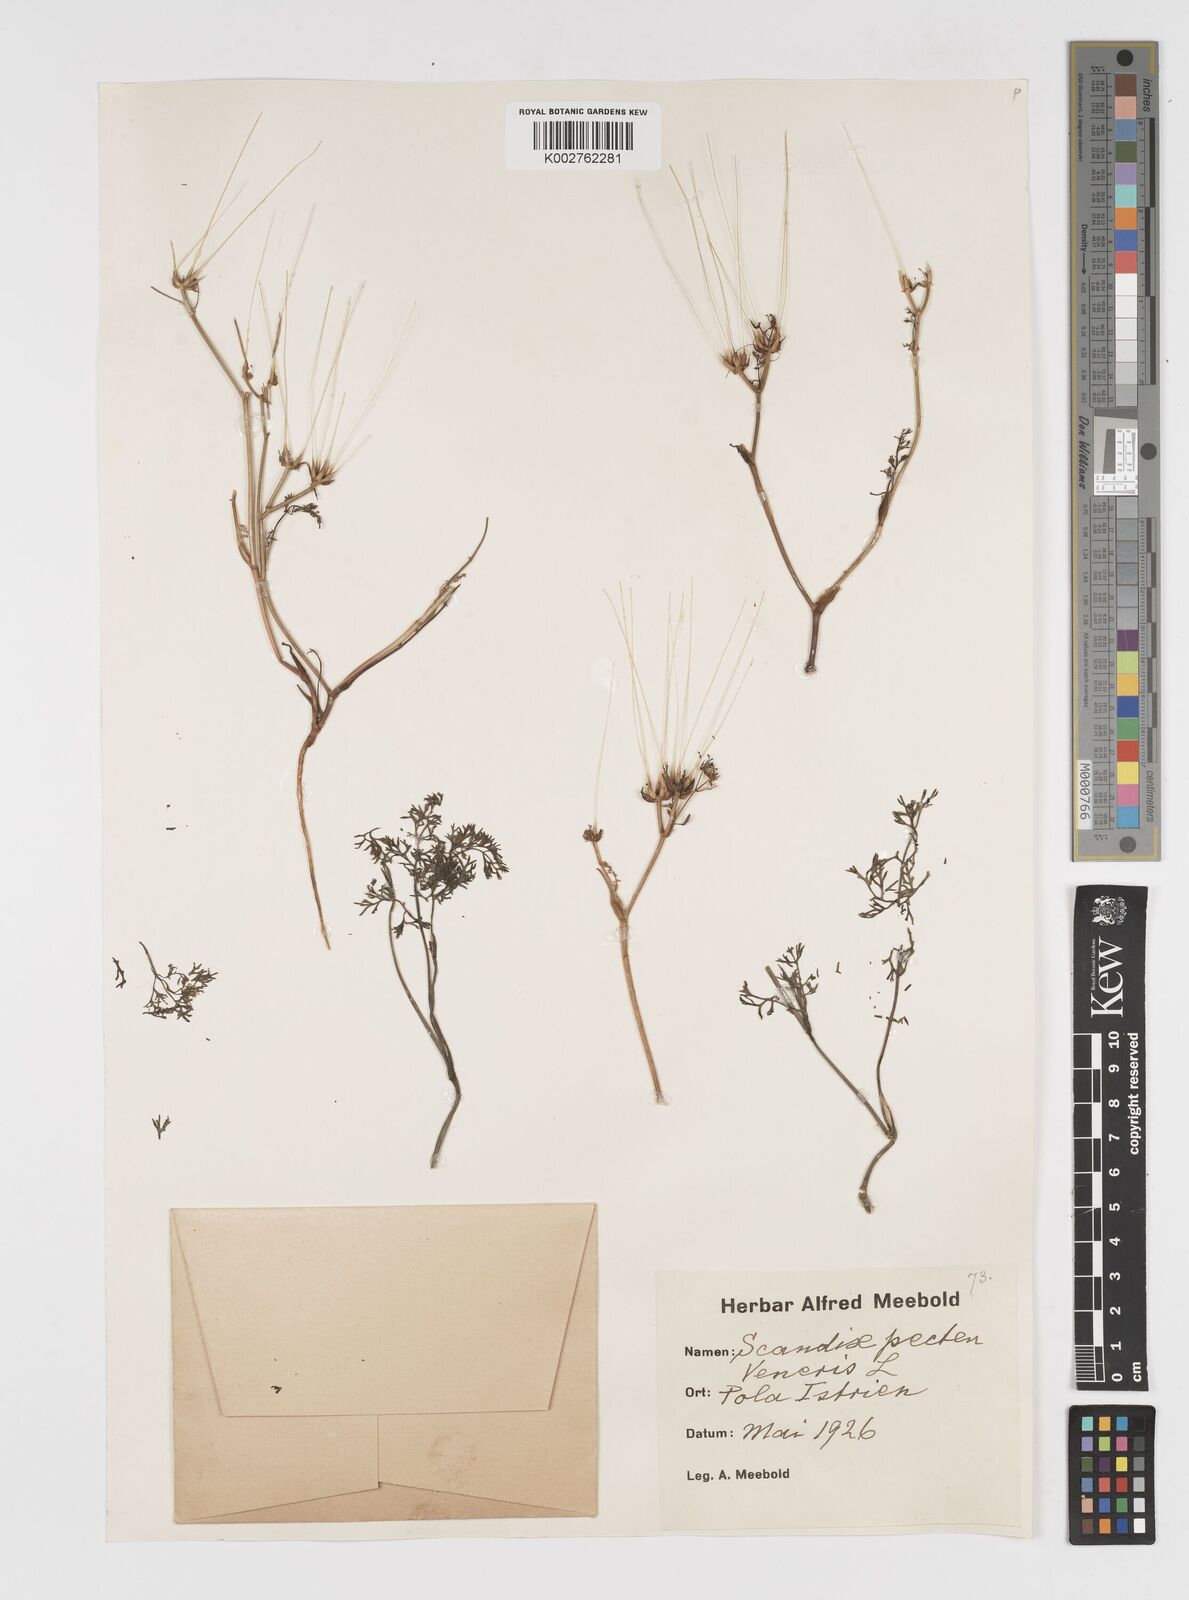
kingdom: Plantae
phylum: Tracheophyta
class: Magnoliopsida
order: Apiales
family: Apiaceae
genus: Scandix
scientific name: Scandix pecten-veneris
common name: Shepherd's-needle
